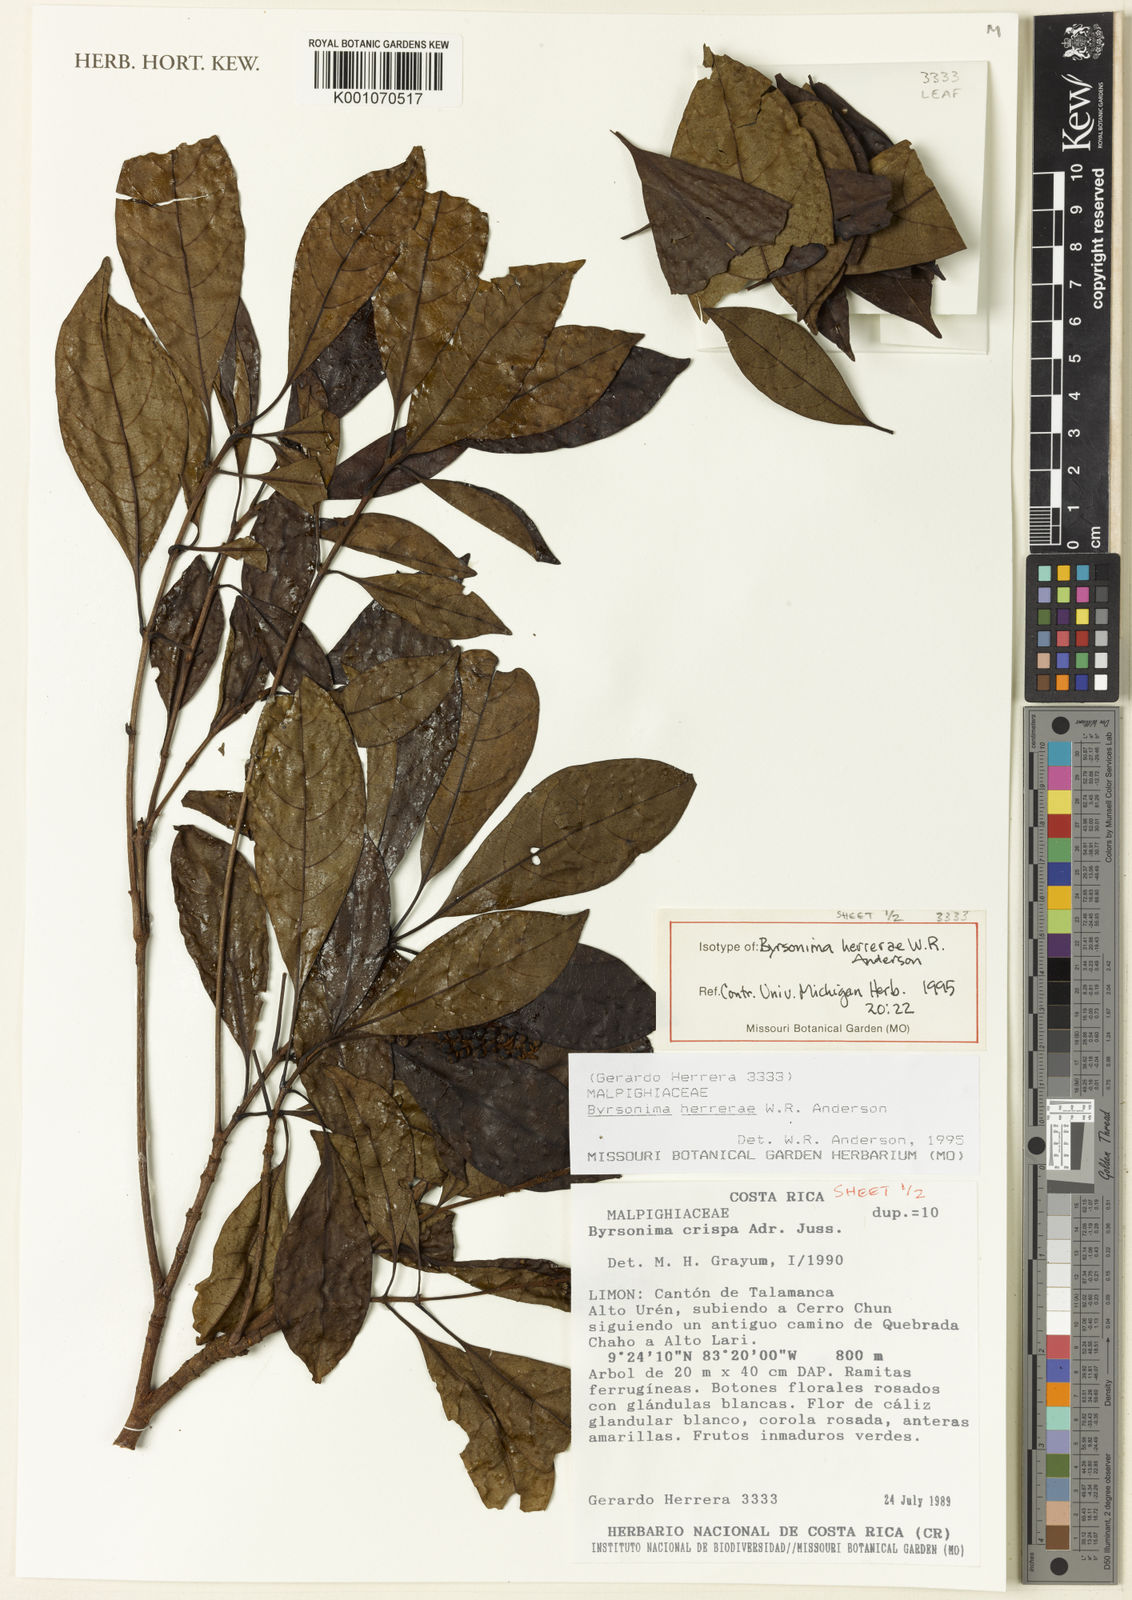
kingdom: Plantae
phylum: Tracheophyta
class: Magnoliopsida
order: Malpighiales
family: Malpighiaceae
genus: Byrsonima
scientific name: Byrsonima herrerae
